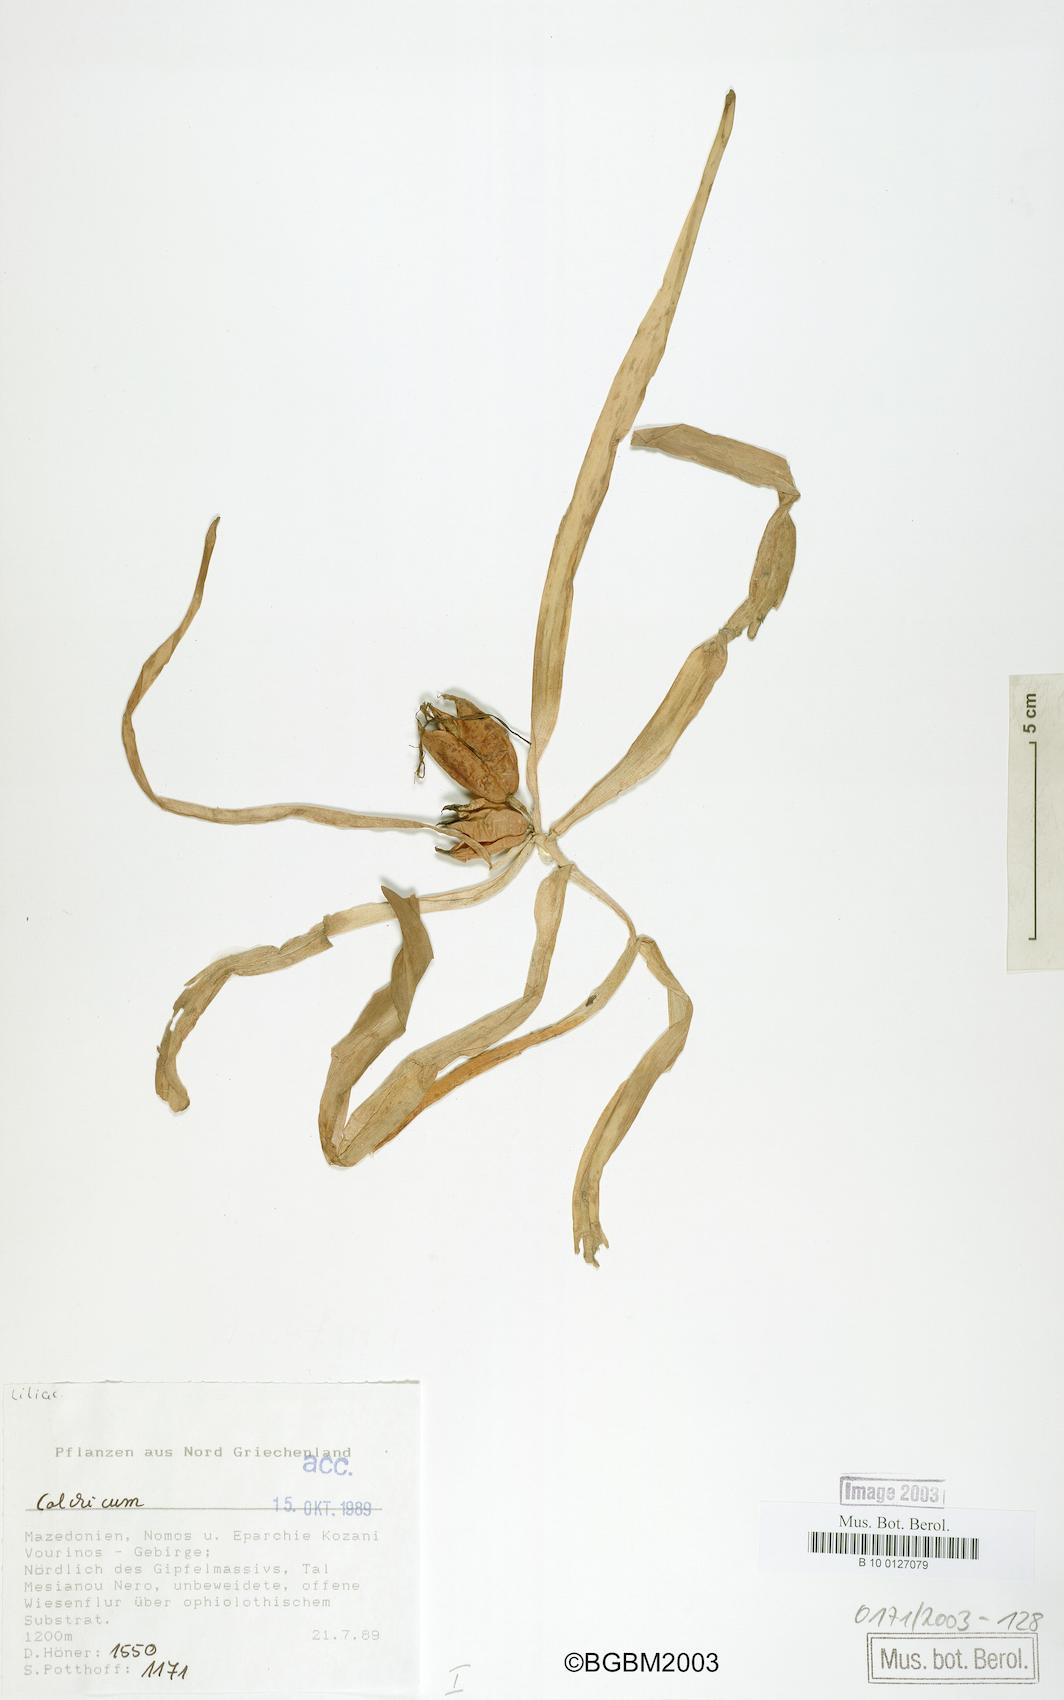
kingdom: Plantae
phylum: Tracheophyta
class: Liliopsida
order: Liliales
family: Colchicaceae
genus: Colchicum
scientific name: Colchicum
